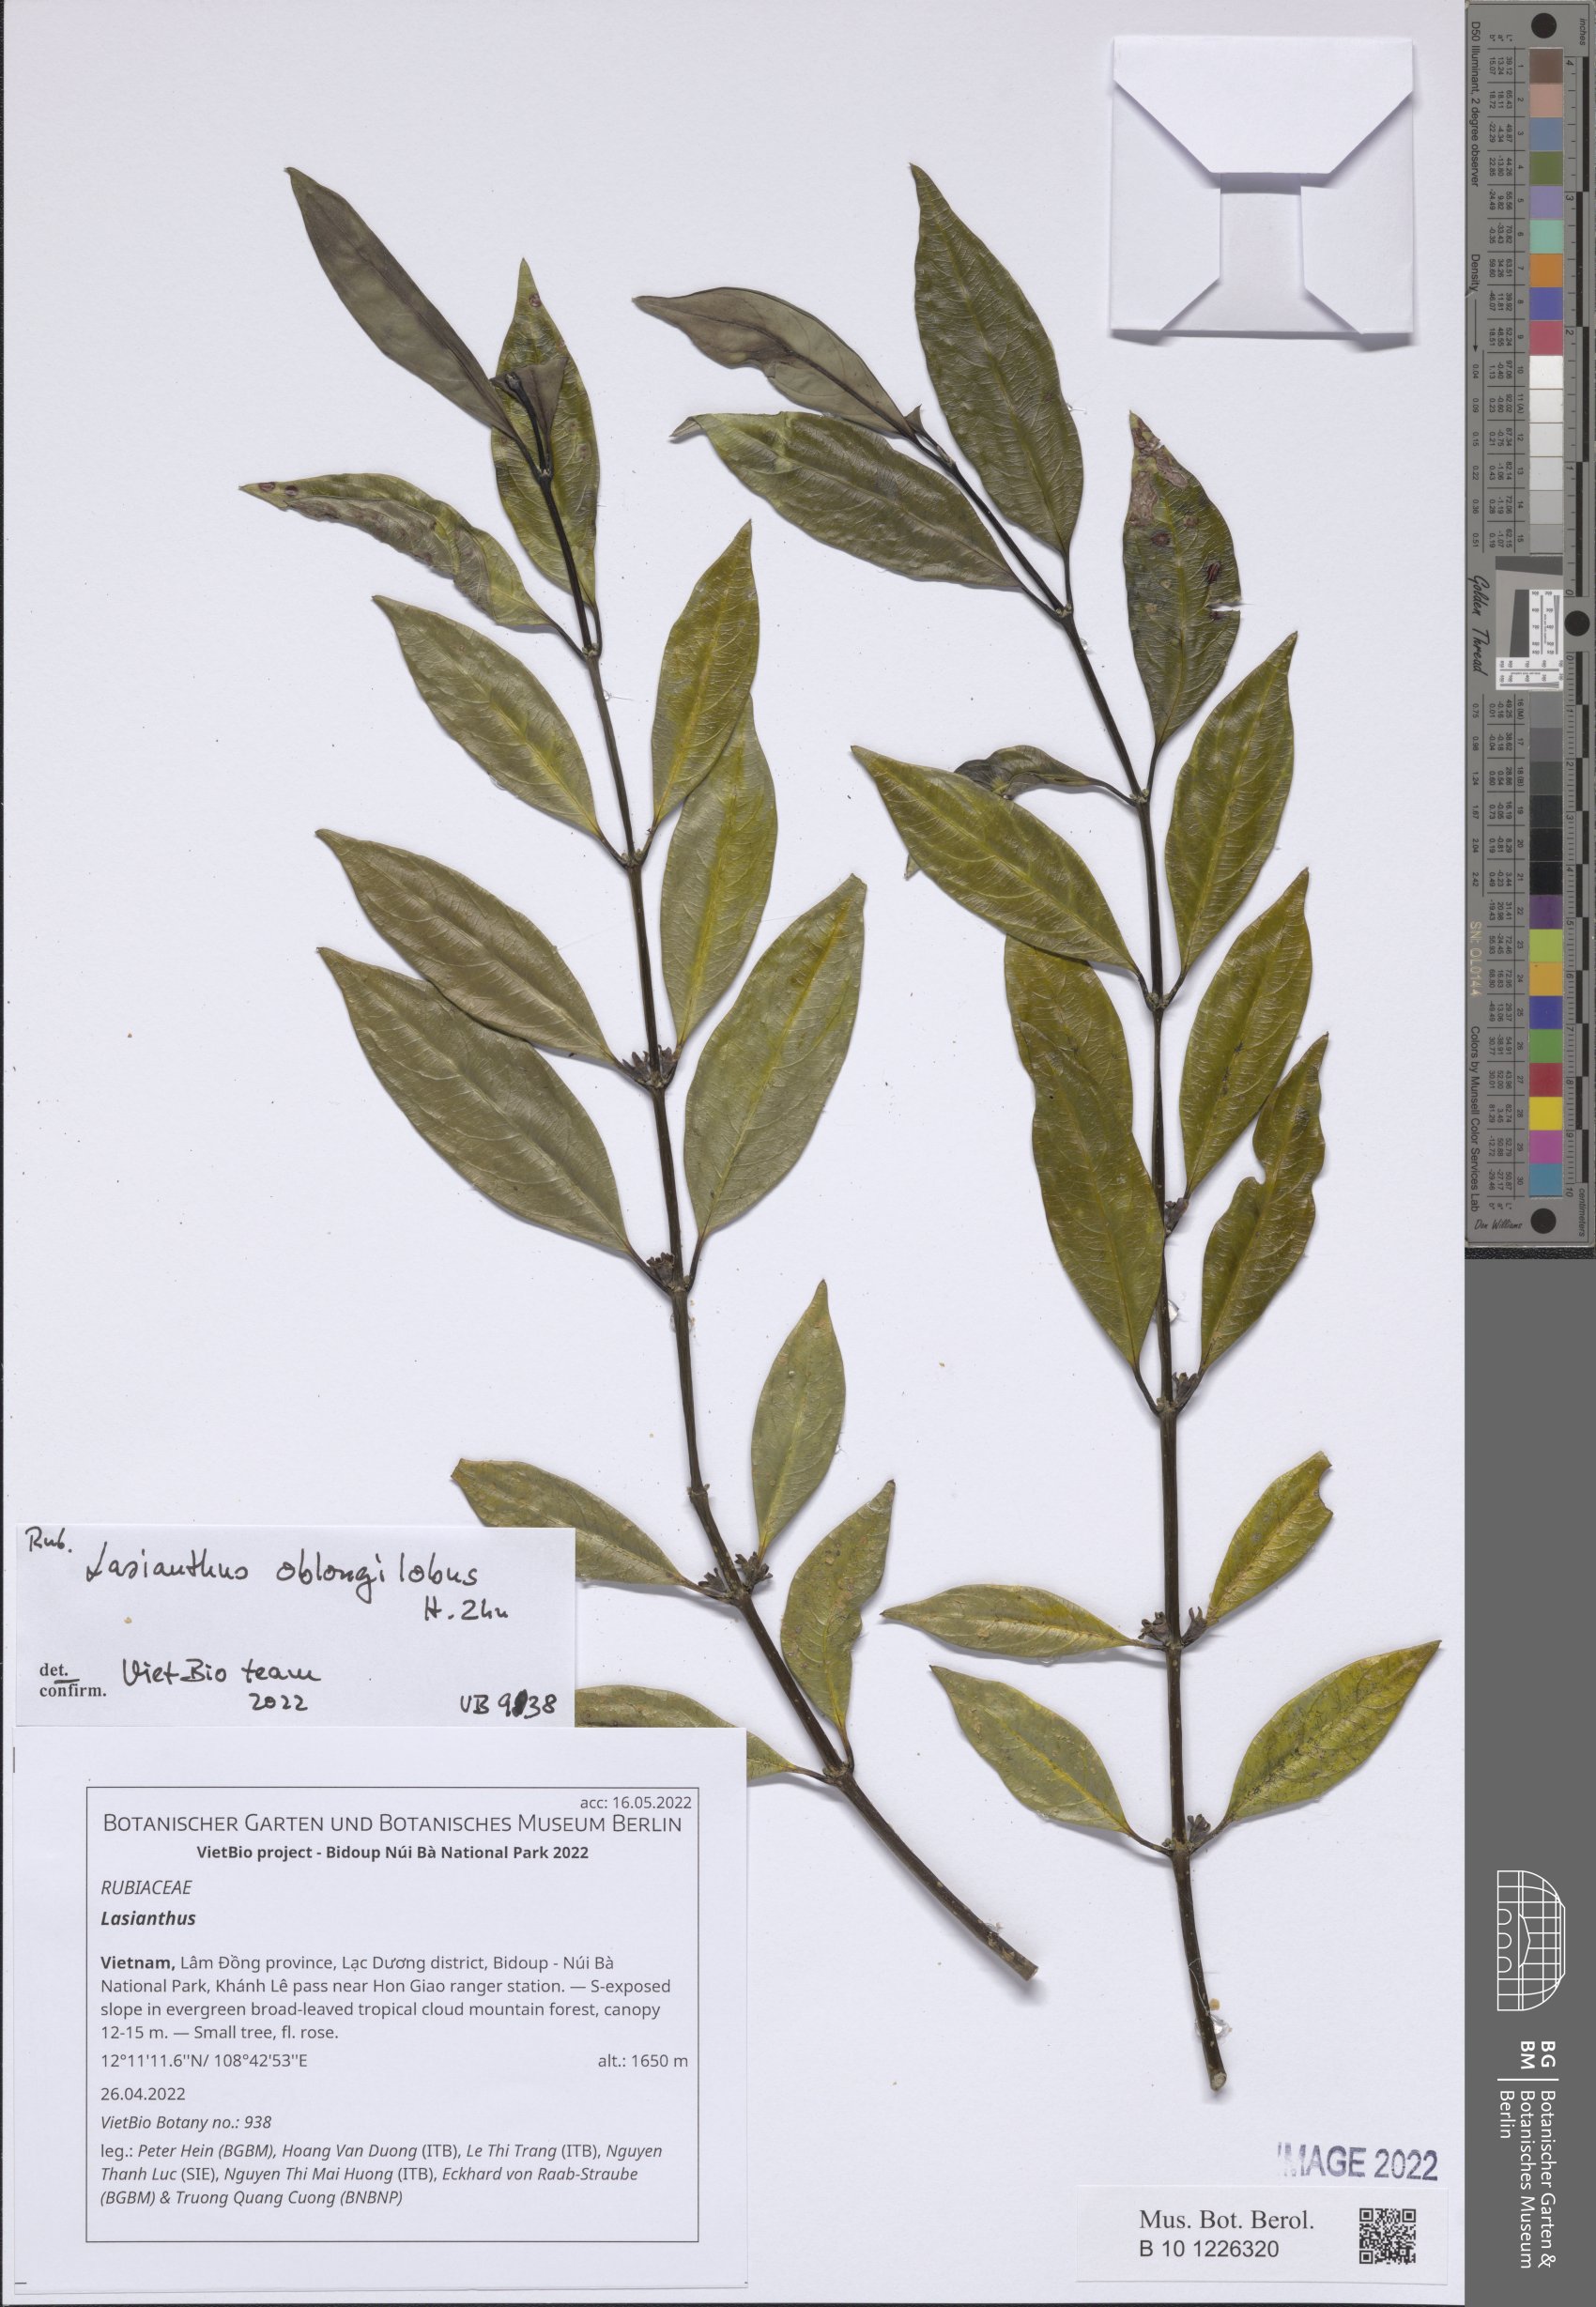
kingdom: Plantae
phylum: Tracheophyta
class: Magnoliopsida
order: Gentianales
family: Rubiaceae
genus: Lasianthus
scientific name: Lasianthus
